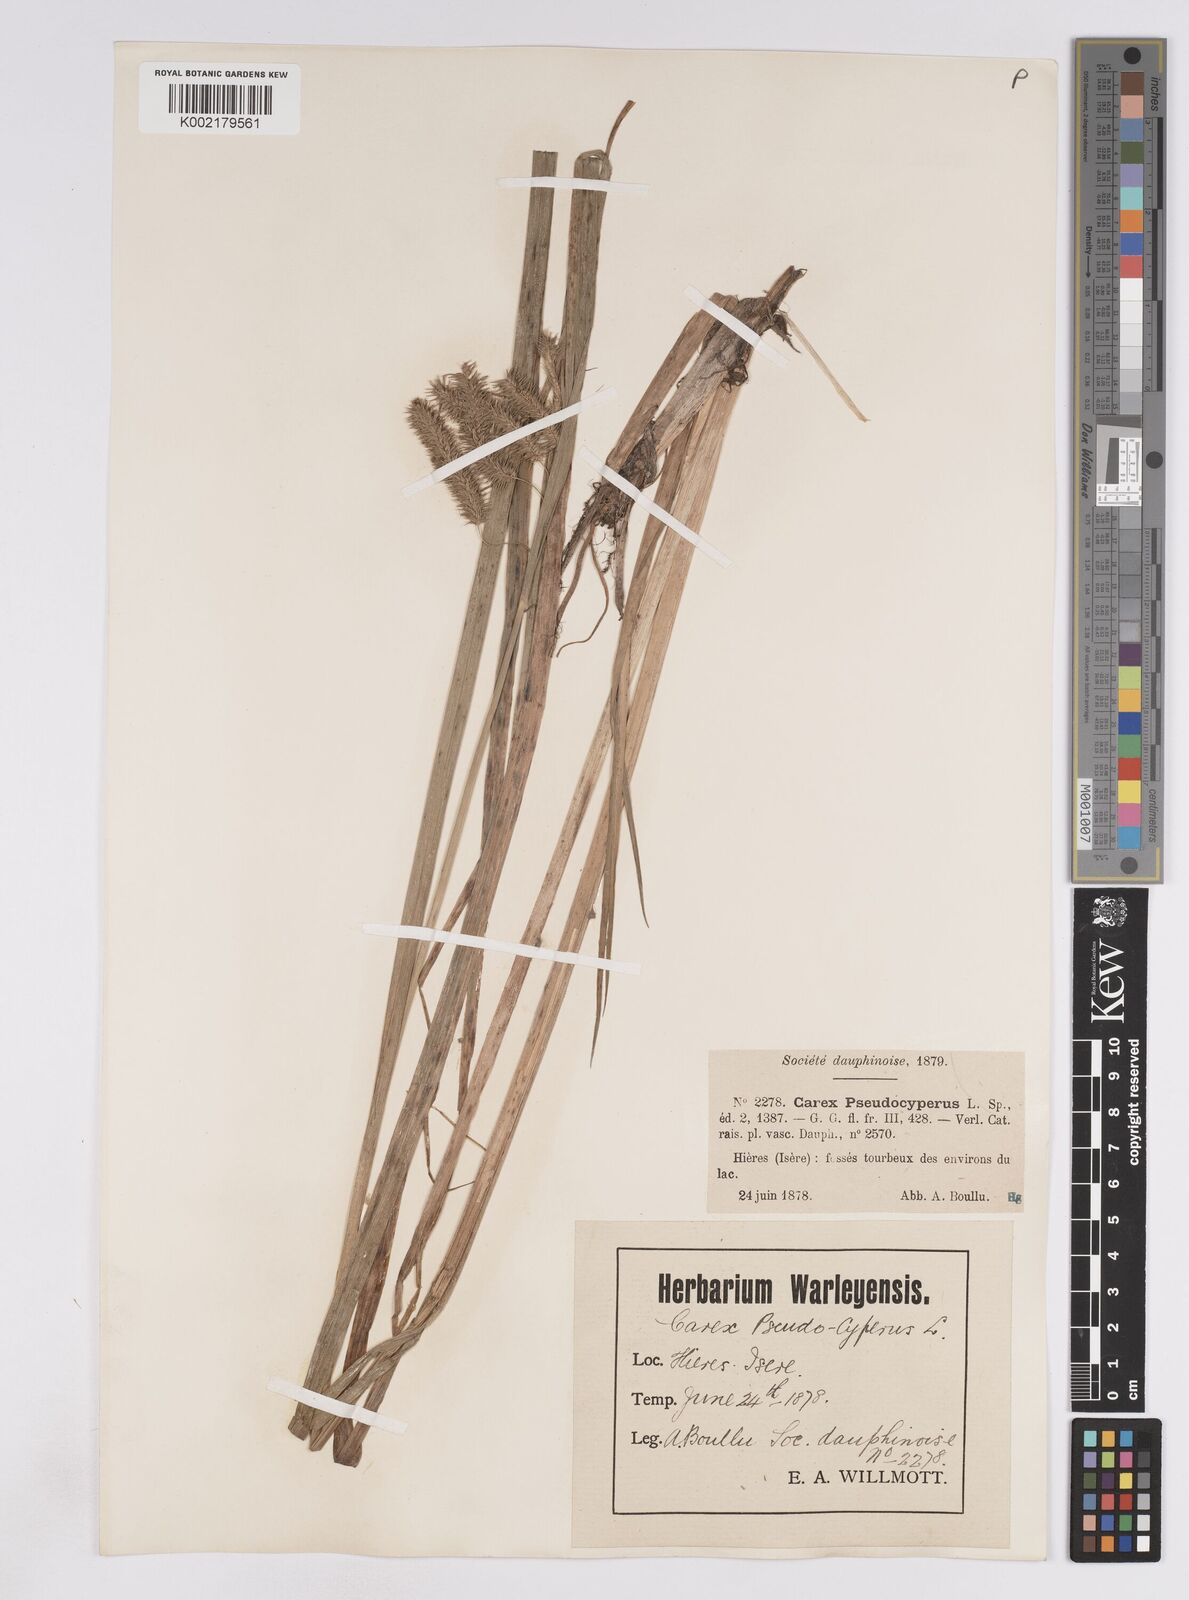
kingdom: Plantae
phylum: Tracheophyta
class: Liliopsida
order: Poales
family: Cyperaceae
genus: Carex
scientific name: Carex pseudocyperus
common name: Cyperus sedge
